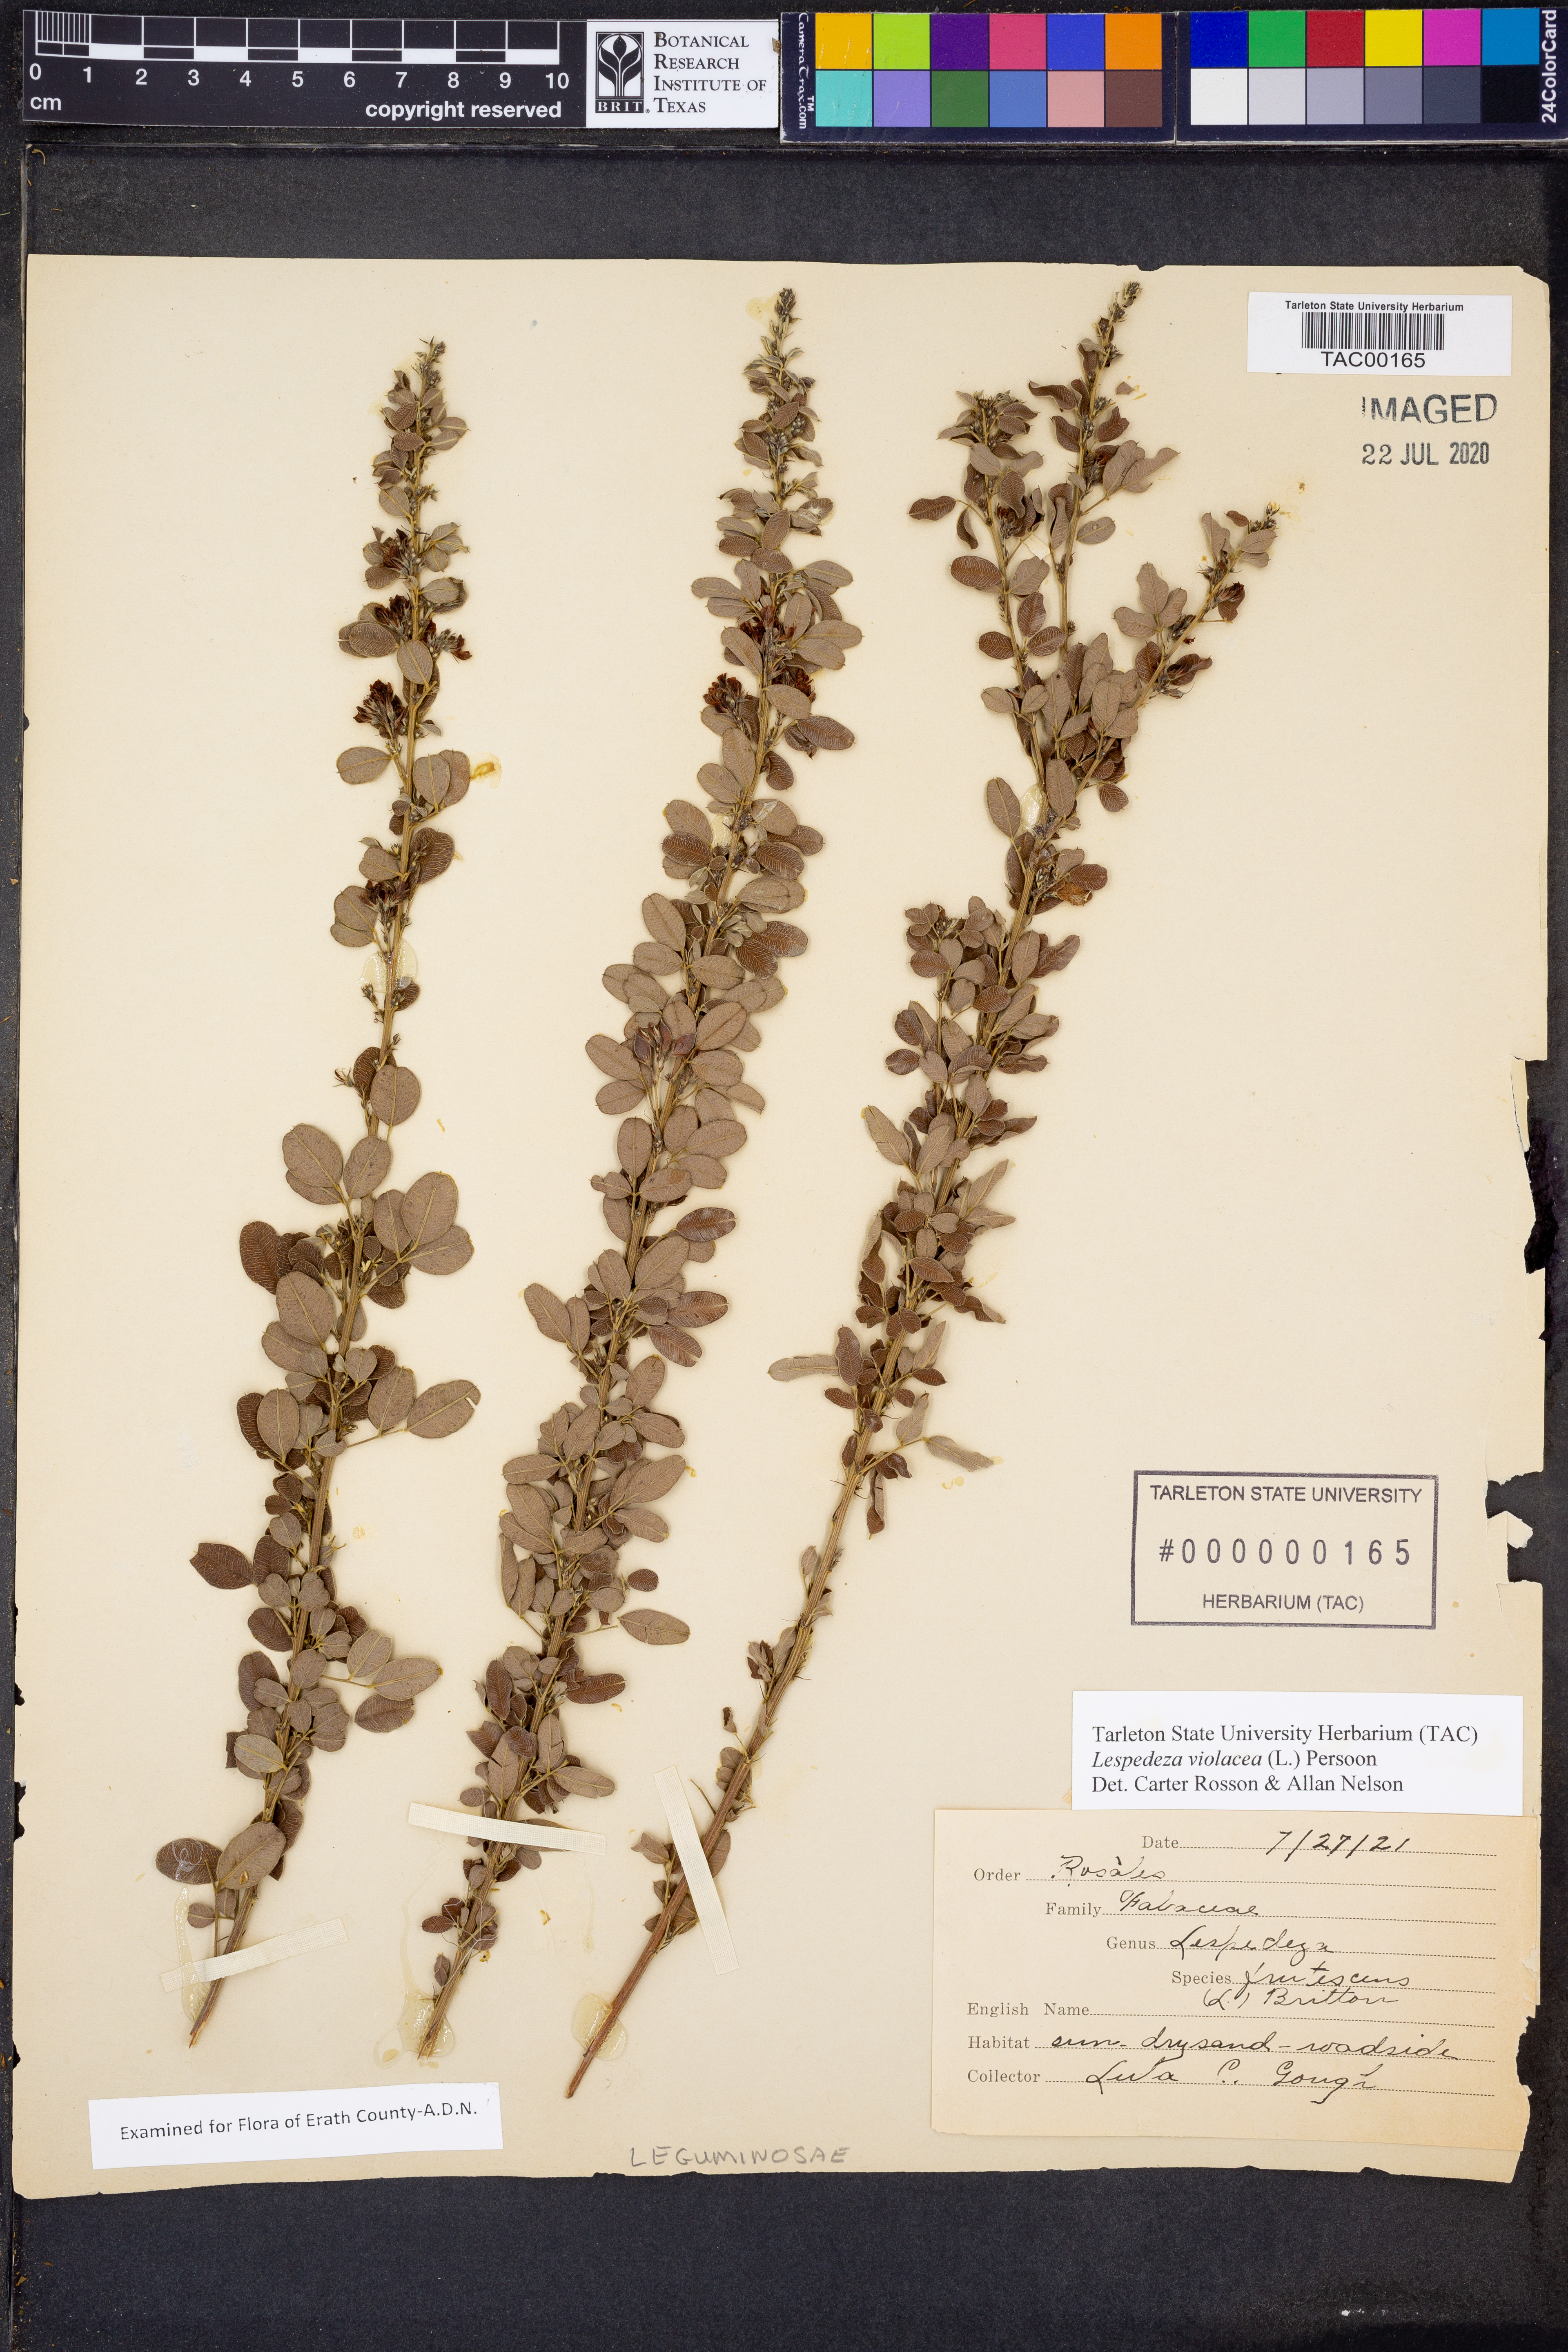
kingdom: Plantae
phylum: Tracheophyta
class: Magnoliopsida
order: Fabales
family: Fabaceae
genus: Lespedeza
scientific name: Lespedeza violacea
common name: Wand bush-clover
